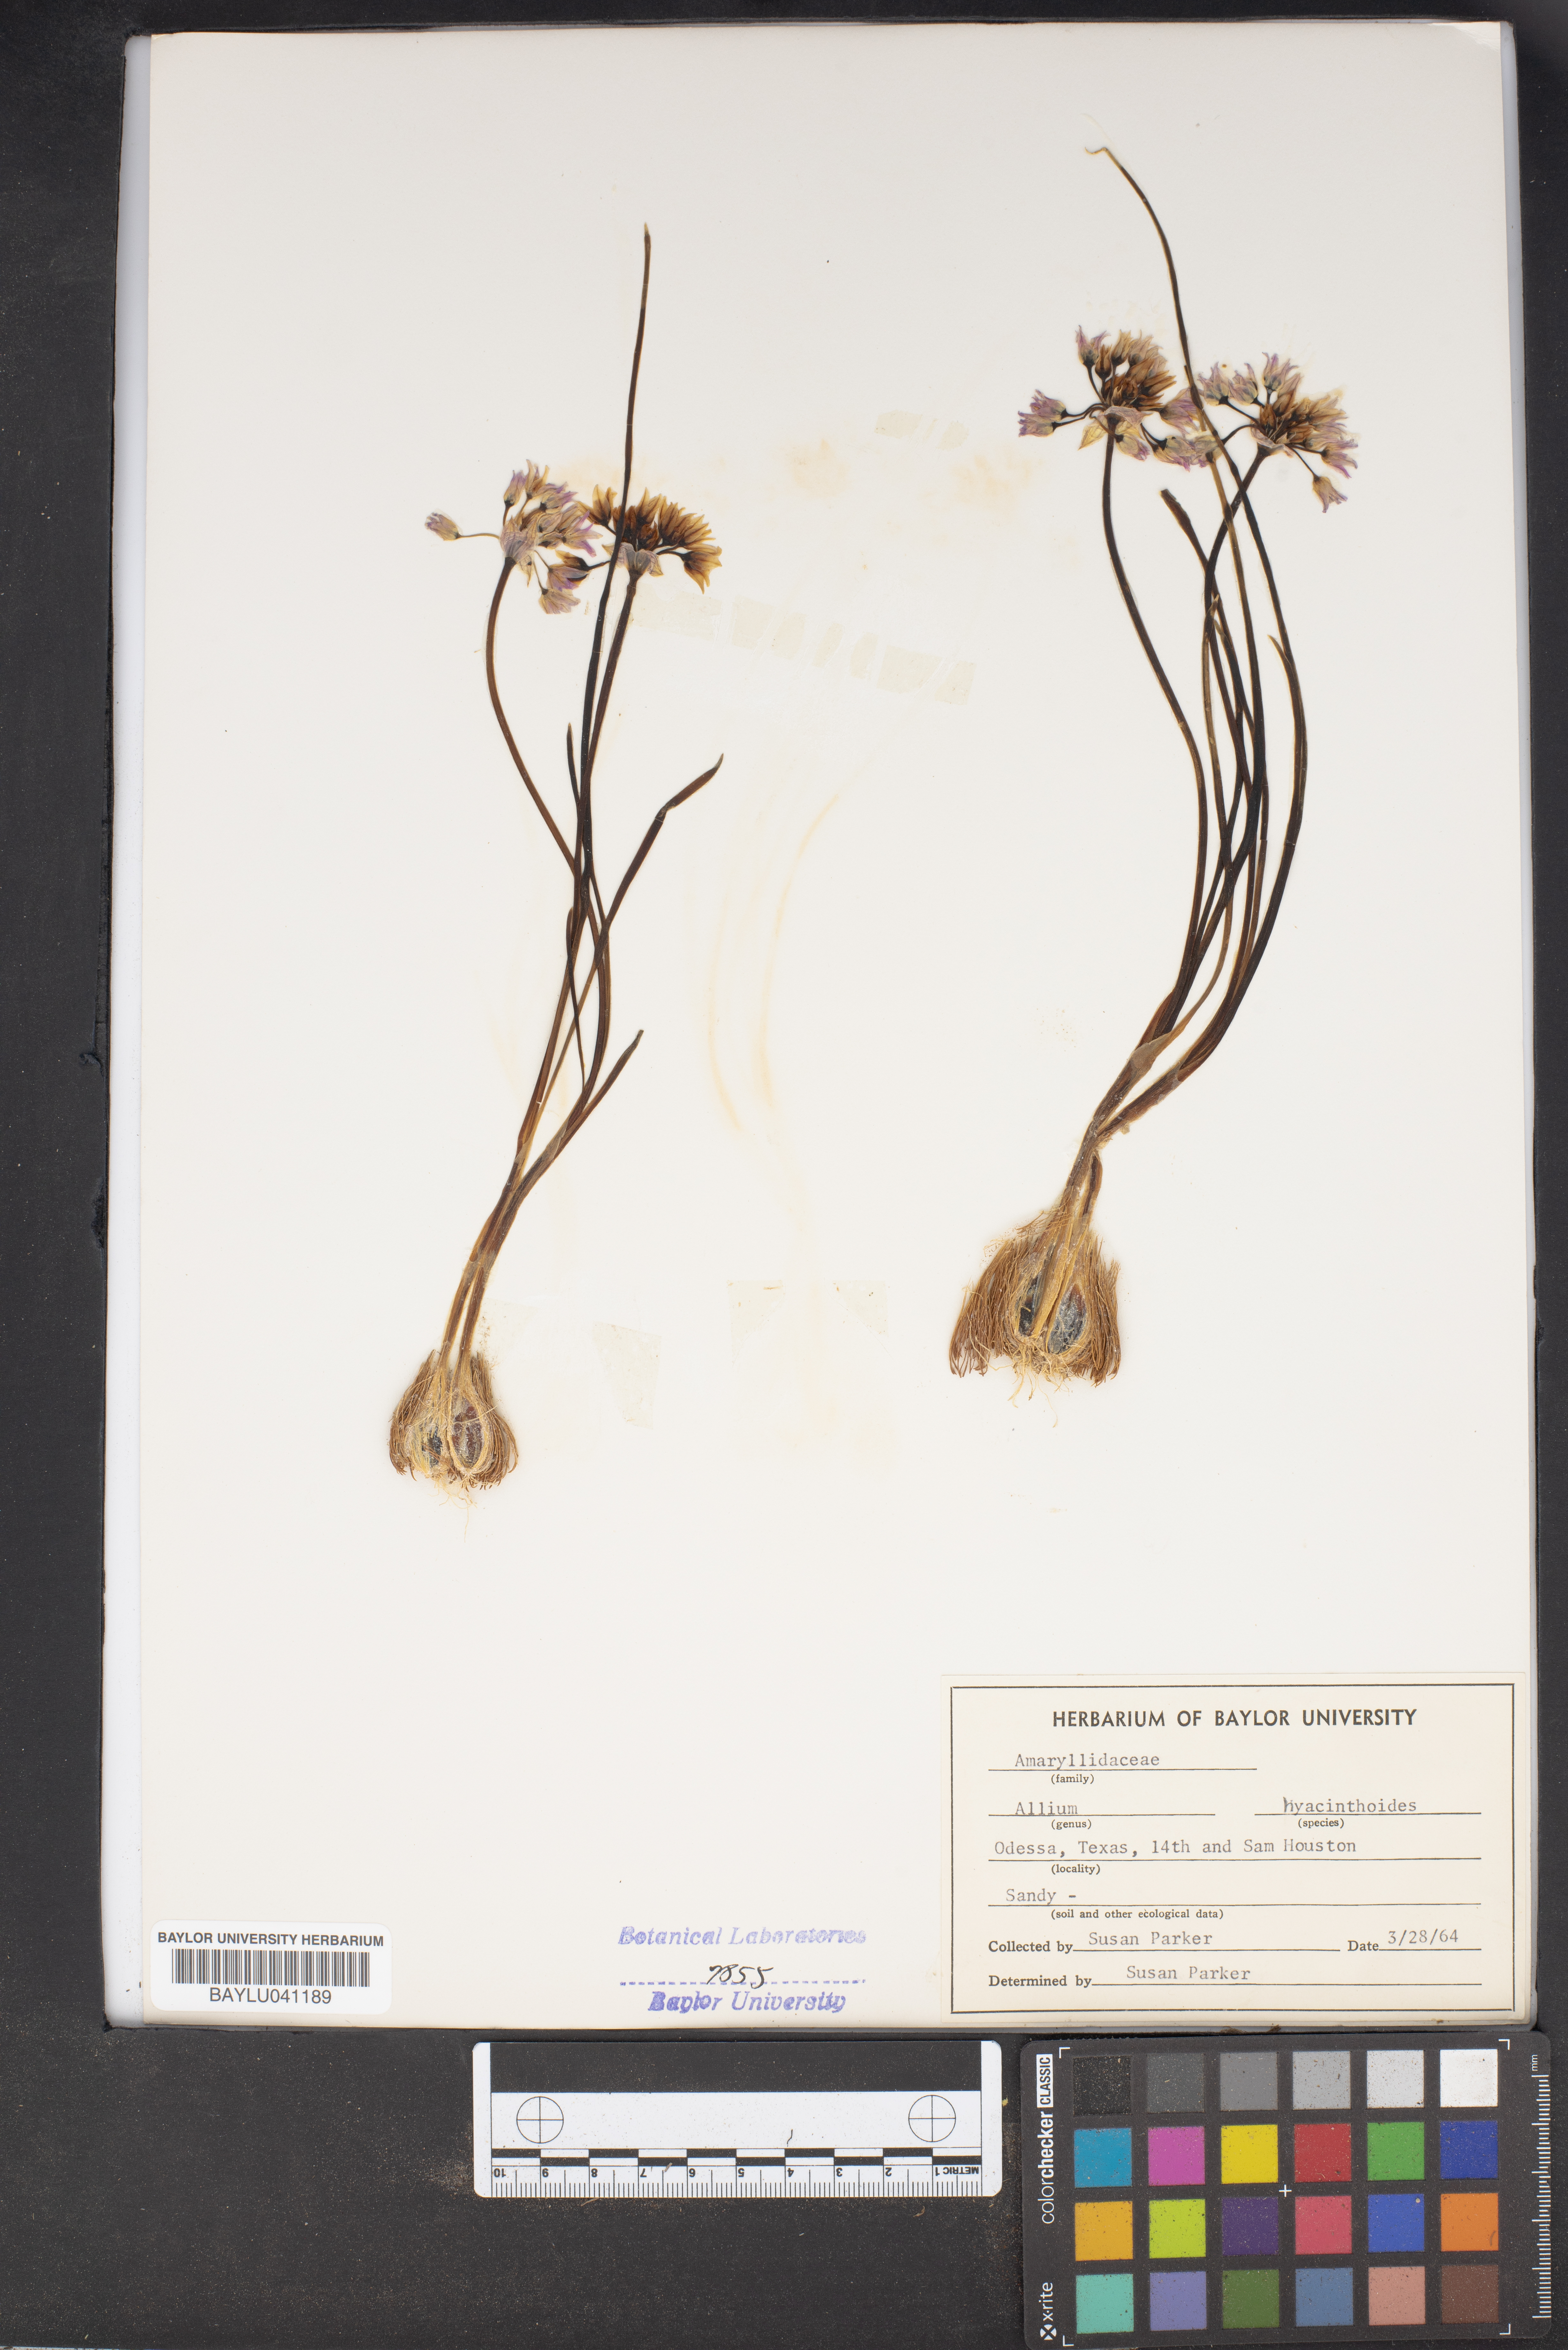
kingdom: Plantae
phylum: Tracheophyta
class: Liliopsida
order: Asparagales
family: Amaryllidaceae
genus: Allium
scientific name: Allium canadense
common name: Meadow garlic
